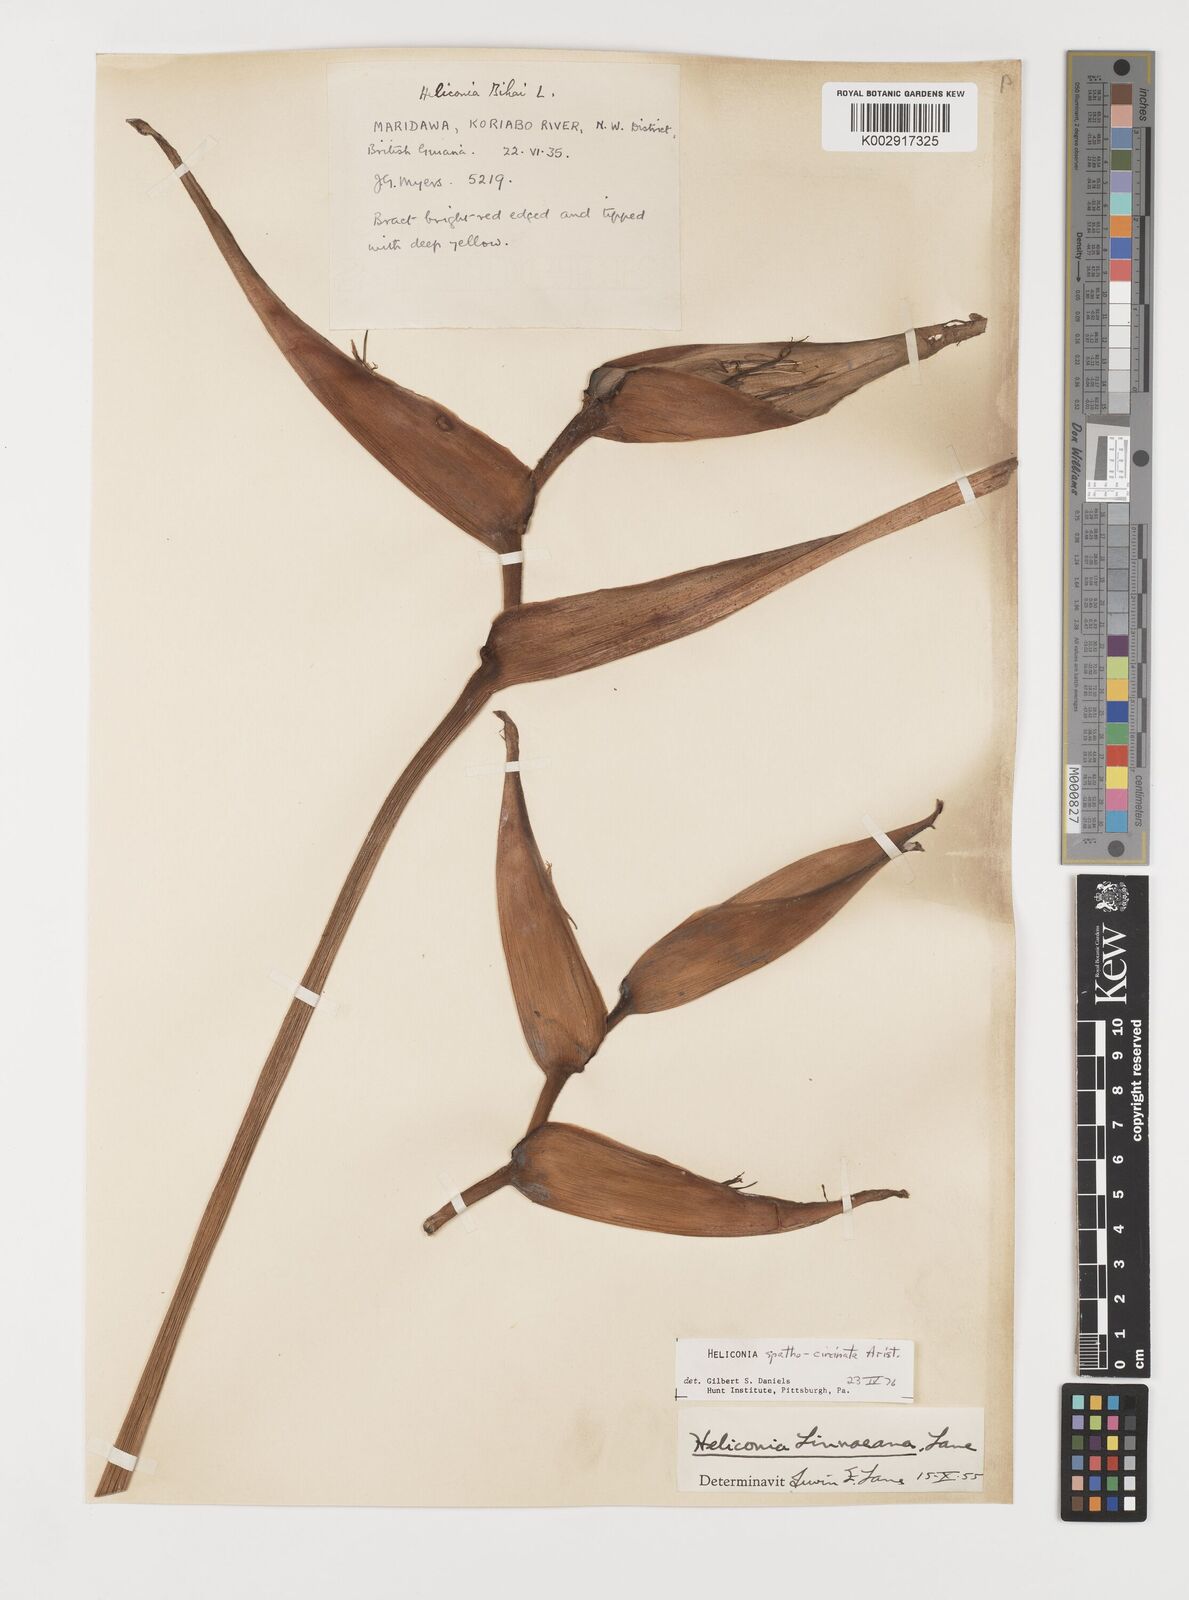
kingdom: Plantae
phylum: Tracheophyta
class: Liliopsida
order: Zingiberales
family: Heliconiaceae
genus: Heliconia
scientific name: Heliconia spathocircinata
